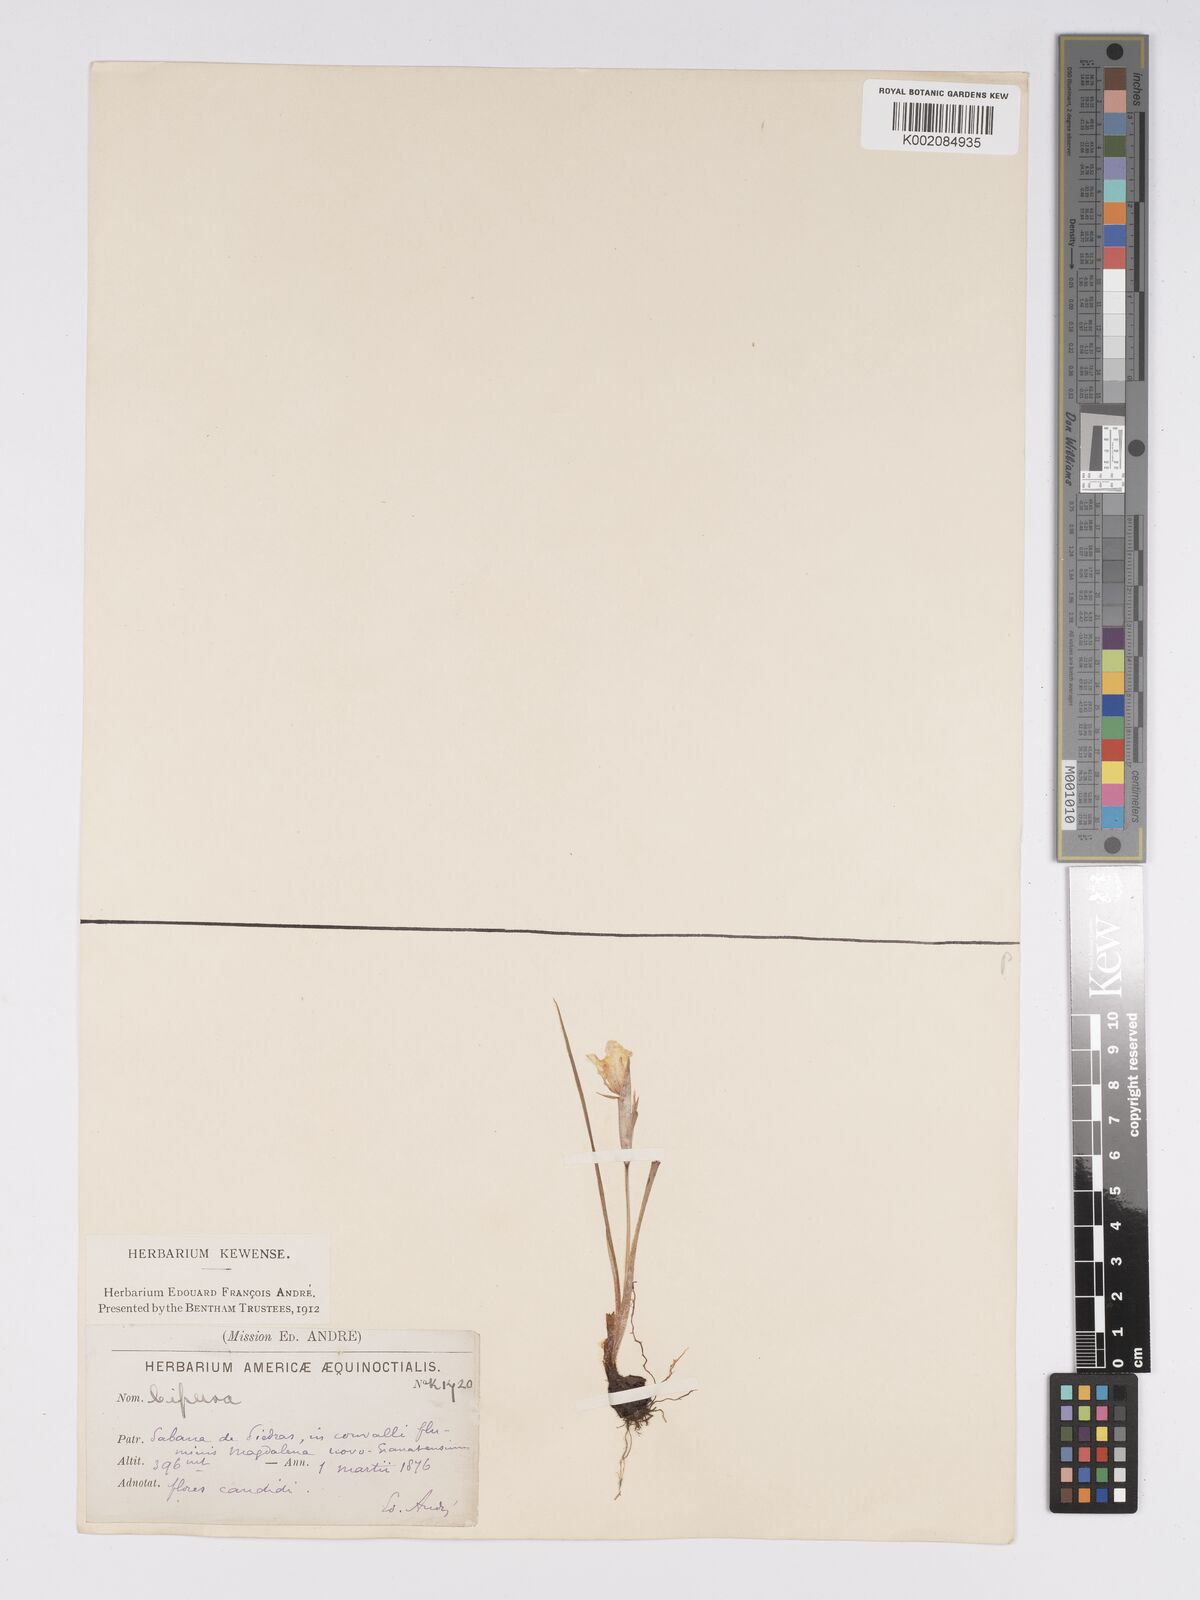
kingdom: Plantae
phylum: Tracheophyta
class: Liliopsida
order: Asparagales
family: Iridaceae
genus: Cipura
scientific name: Cipura paludosa
